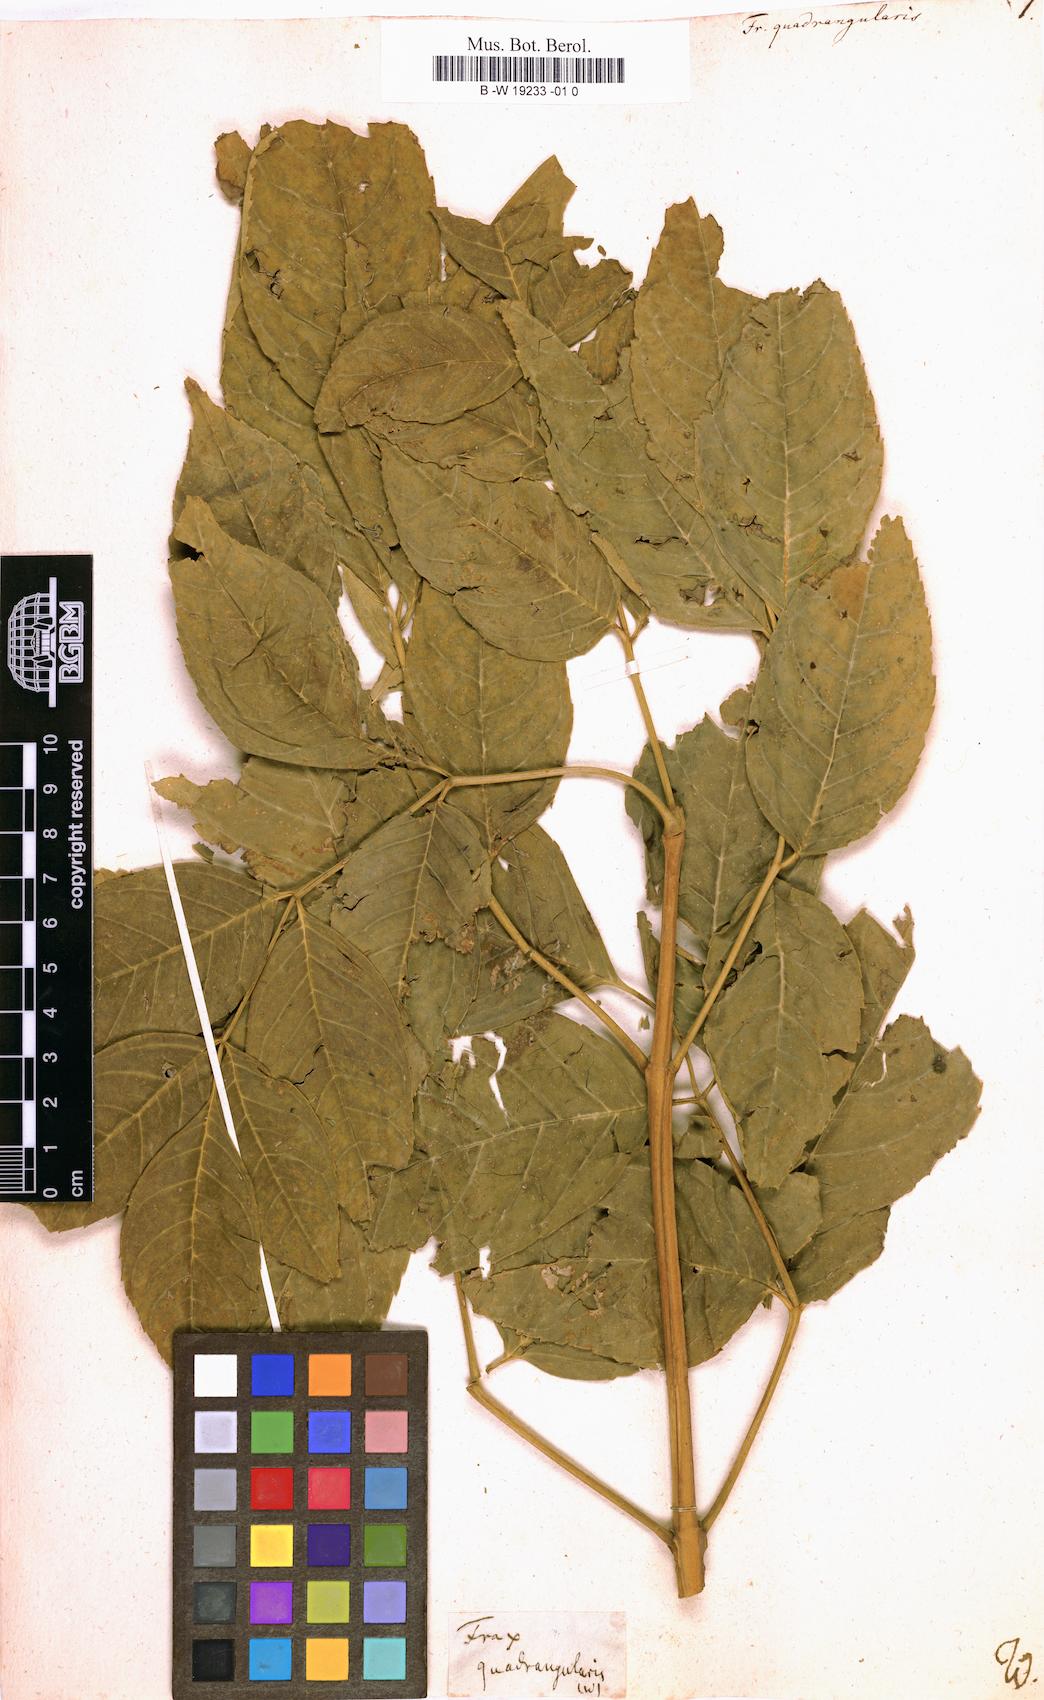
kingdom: Plantae
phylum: Tracheophyta
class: Magnoliopsida
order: Lamiales
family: Oleaceae
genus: Fraxinus
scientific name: Fraxinus quadrangulata
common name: Blue ash
